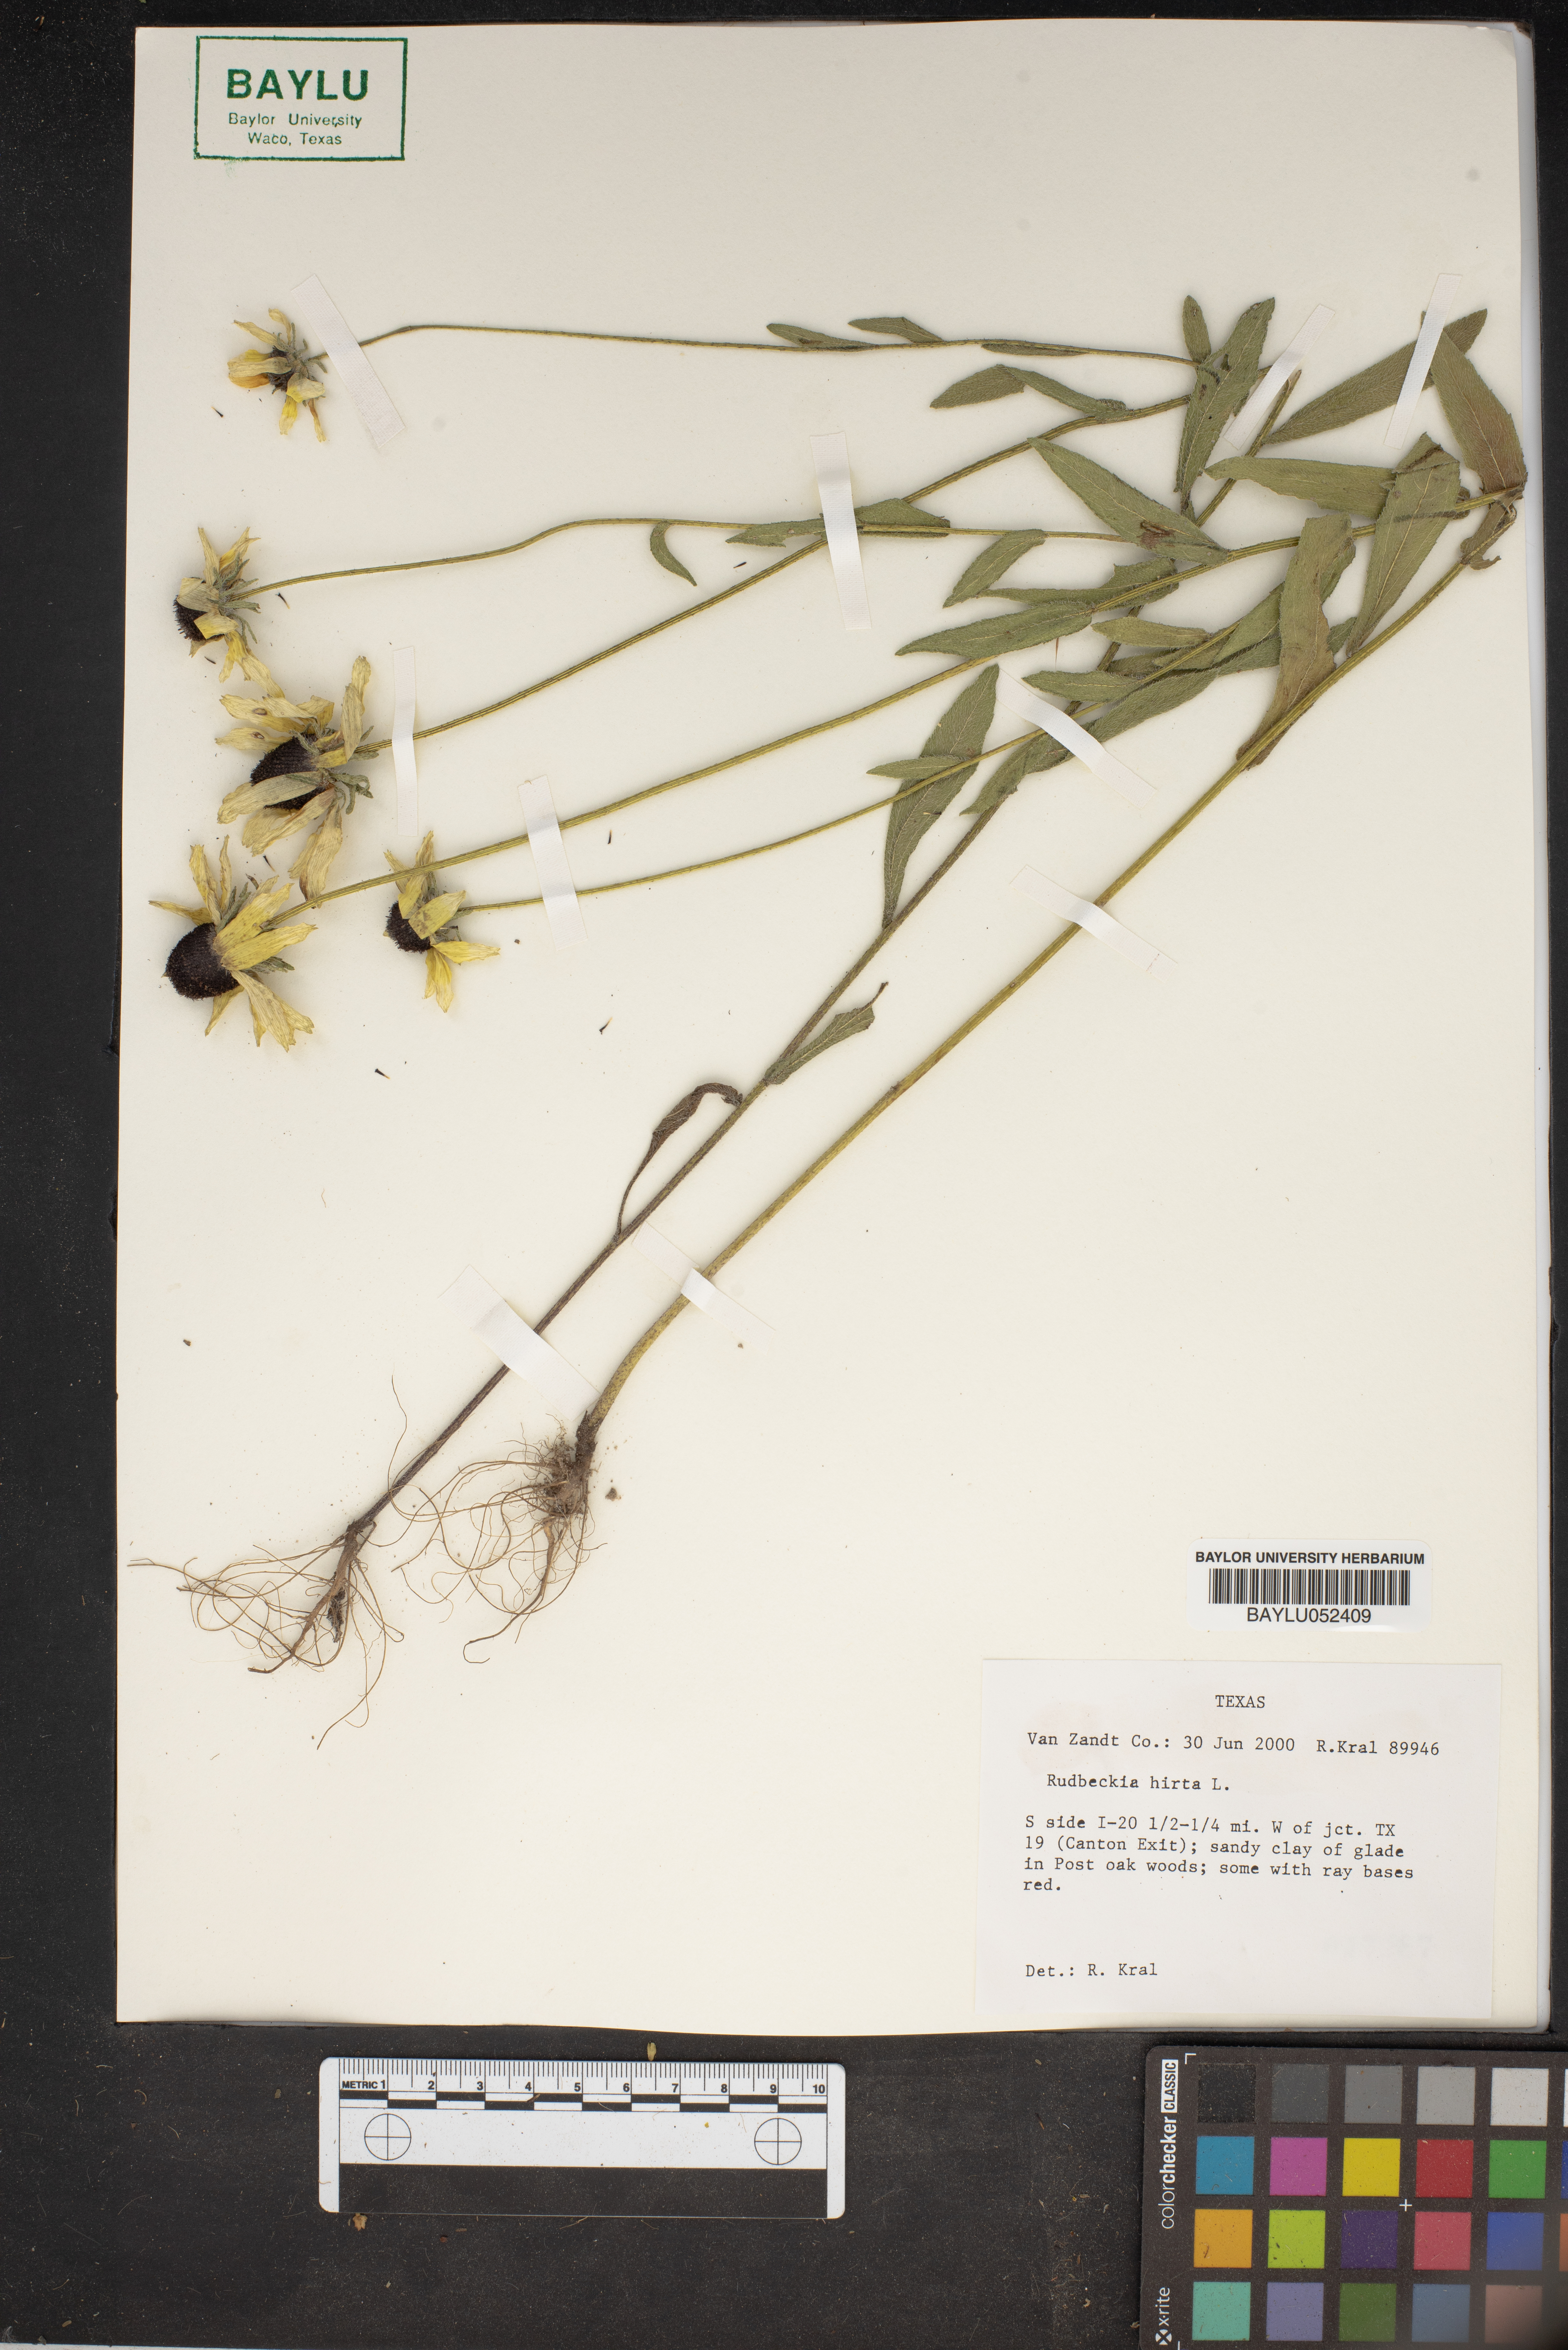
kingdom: Plantae
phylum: Tracheophyta
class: Magnoliopsida
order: Asterales
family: Asteraceae
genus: Rudbeckia
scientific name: Rudbeckia hirta
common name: Black-eyed-susan
